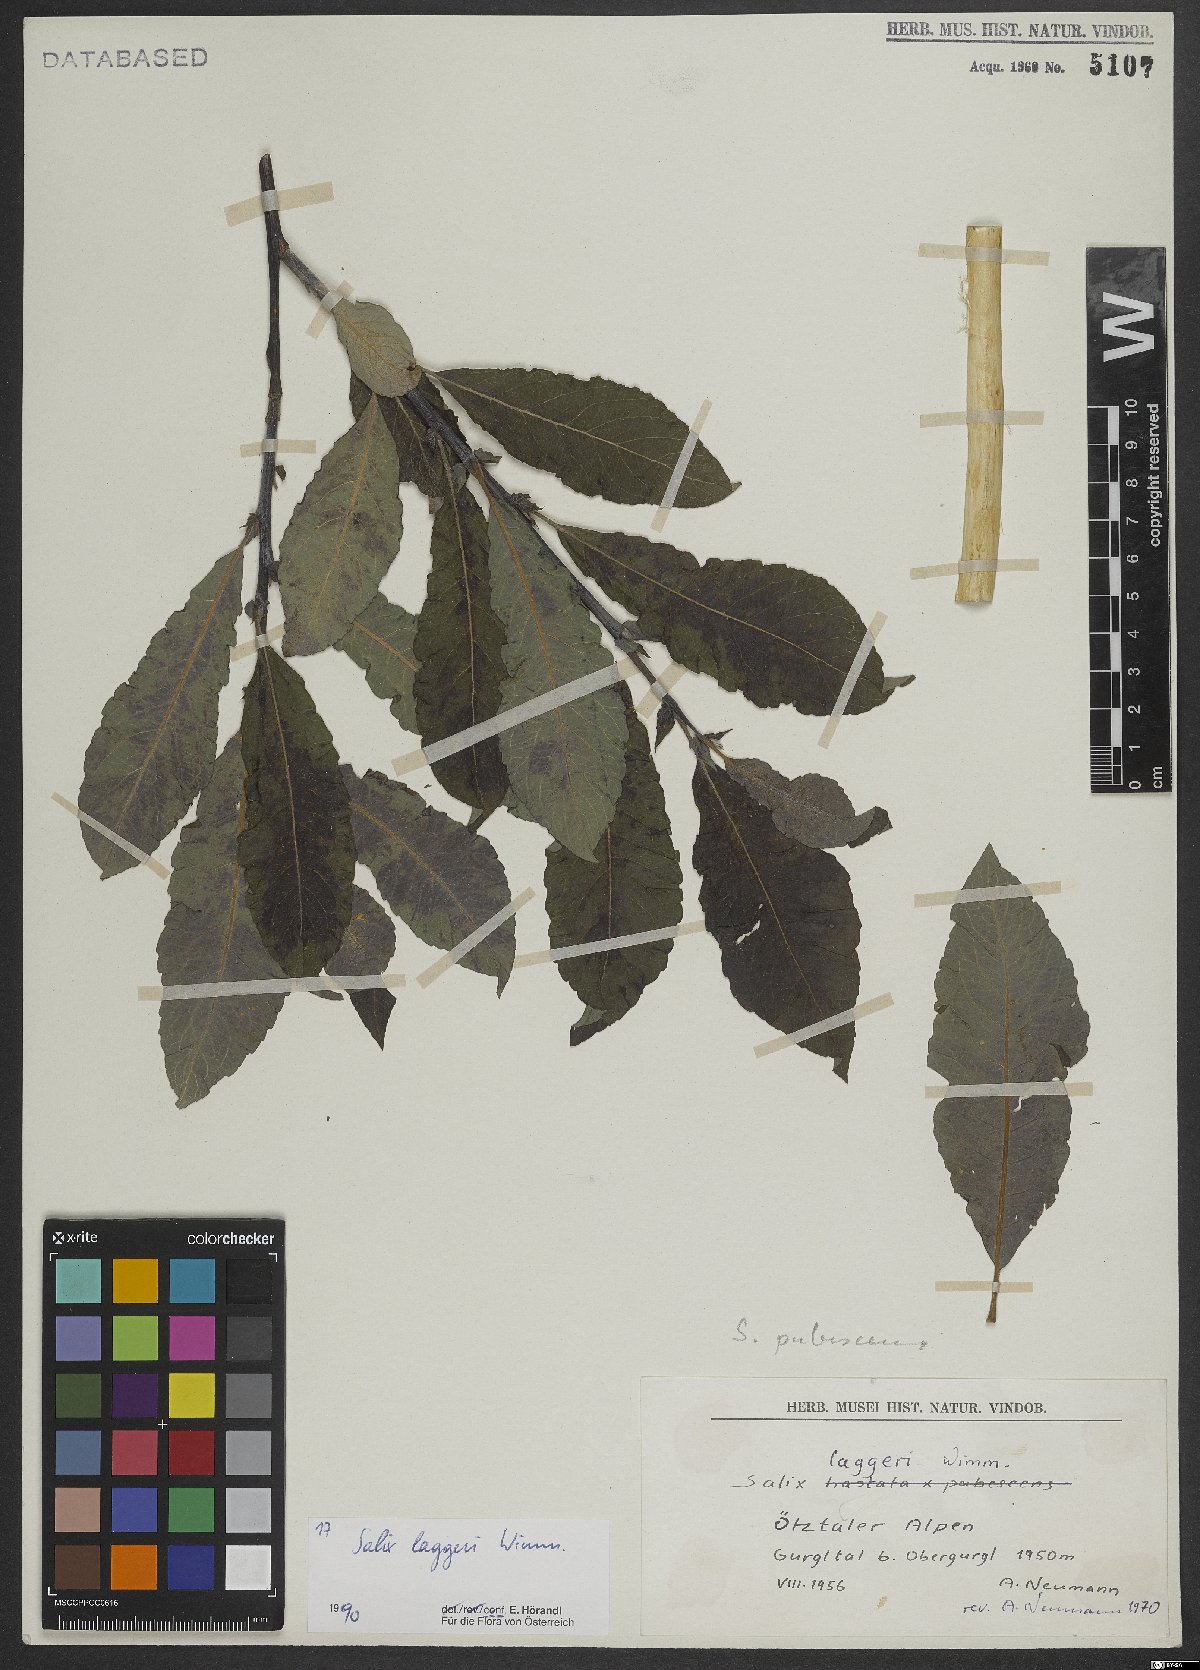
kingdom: Plantae
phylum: Tracheophyta
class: Magnoliopsida
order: Malpighiales
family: Salicaceae
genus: Salix
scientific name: Salix laggeri
